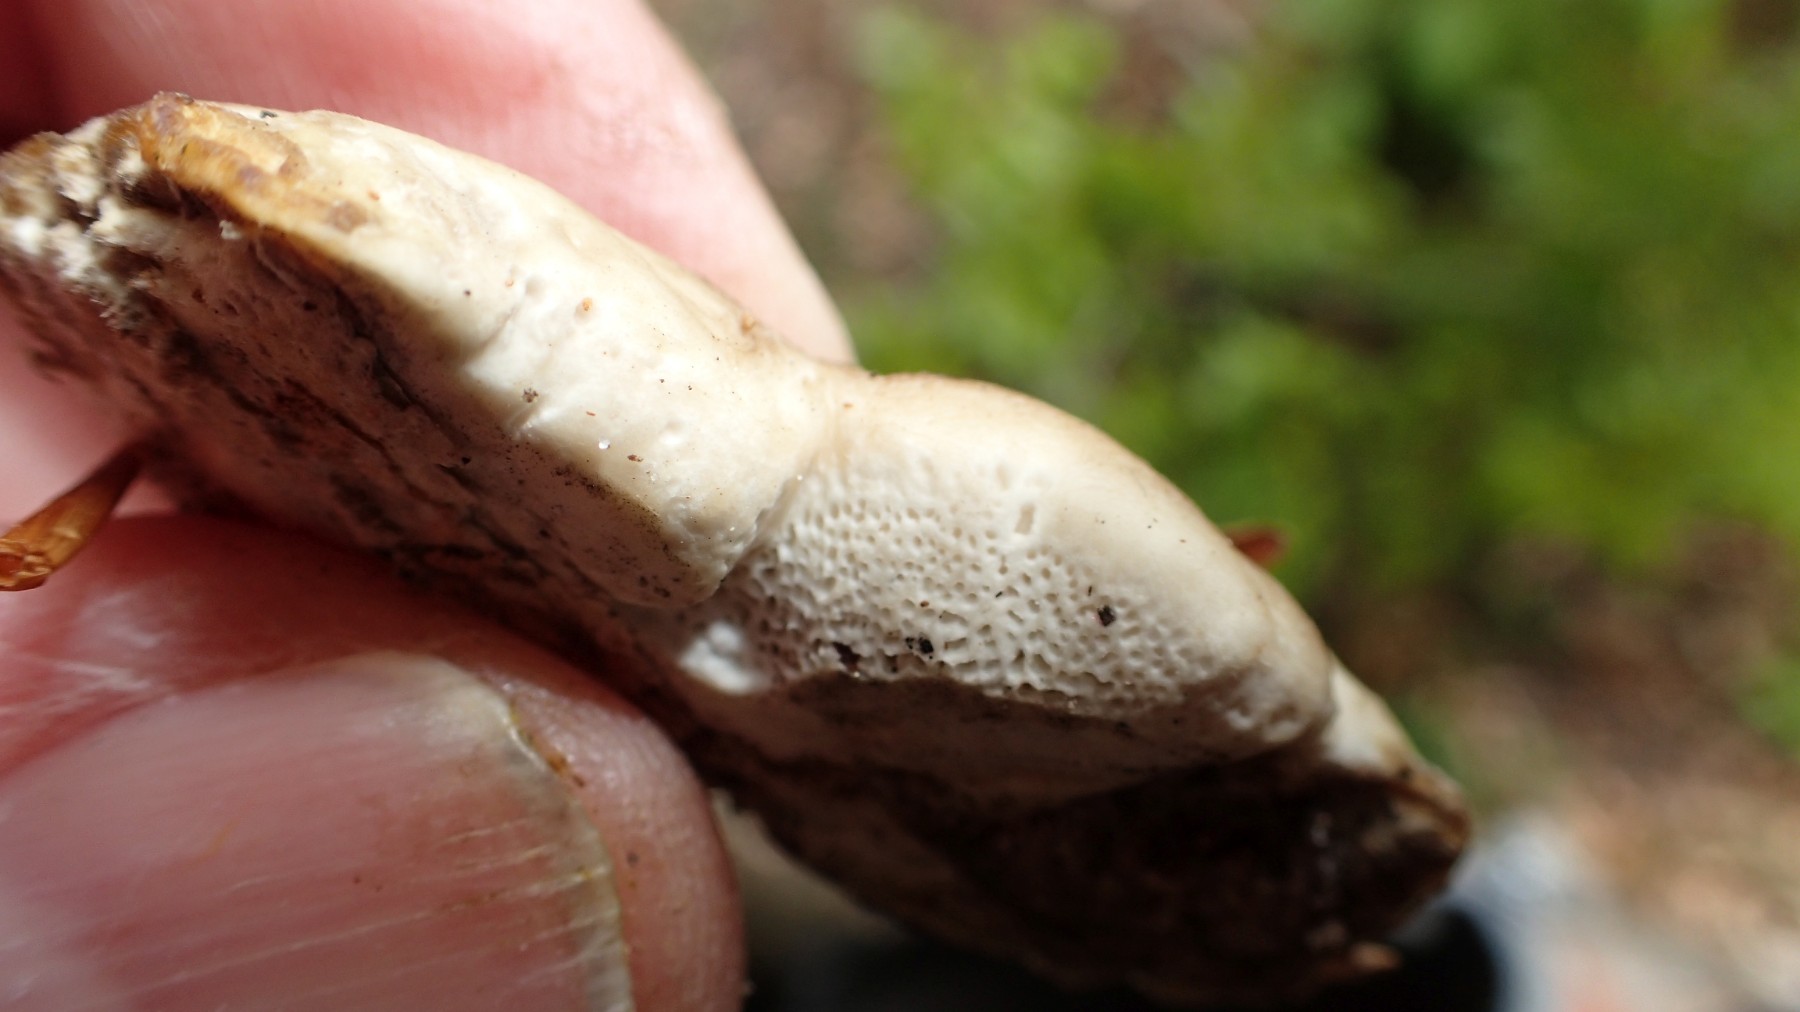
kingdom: Fungi
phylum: Basidiomycota
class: Agaricomycetes
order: Polyporales
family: Polyporaceae
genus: Podofomes
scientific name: Podofomes mollis
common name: blød begporesvamp
